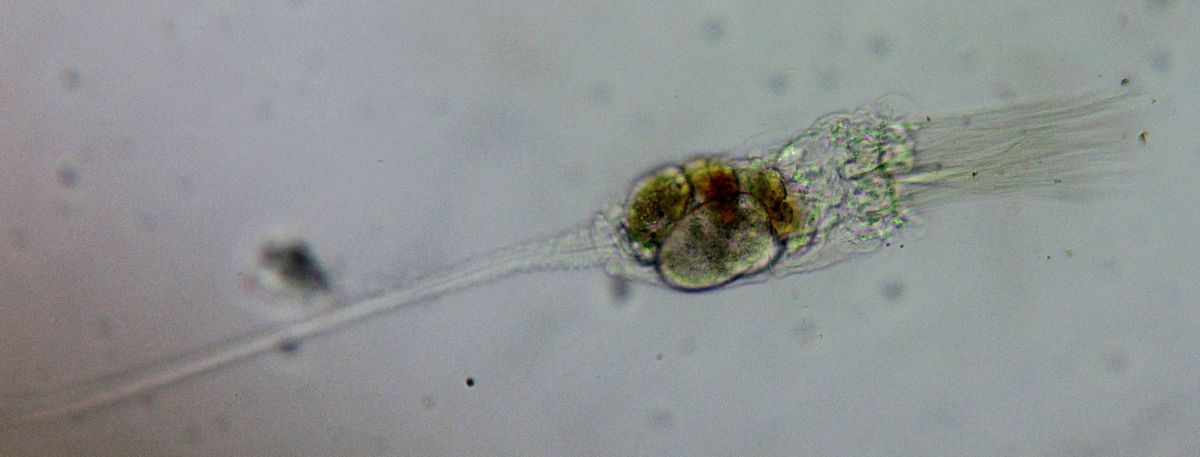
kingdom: Animalia
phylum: Rotifera
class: Eurotatoria
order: Collothecacea
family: Collothecidae
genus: Collotheca
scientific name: Collotheca campanulata
